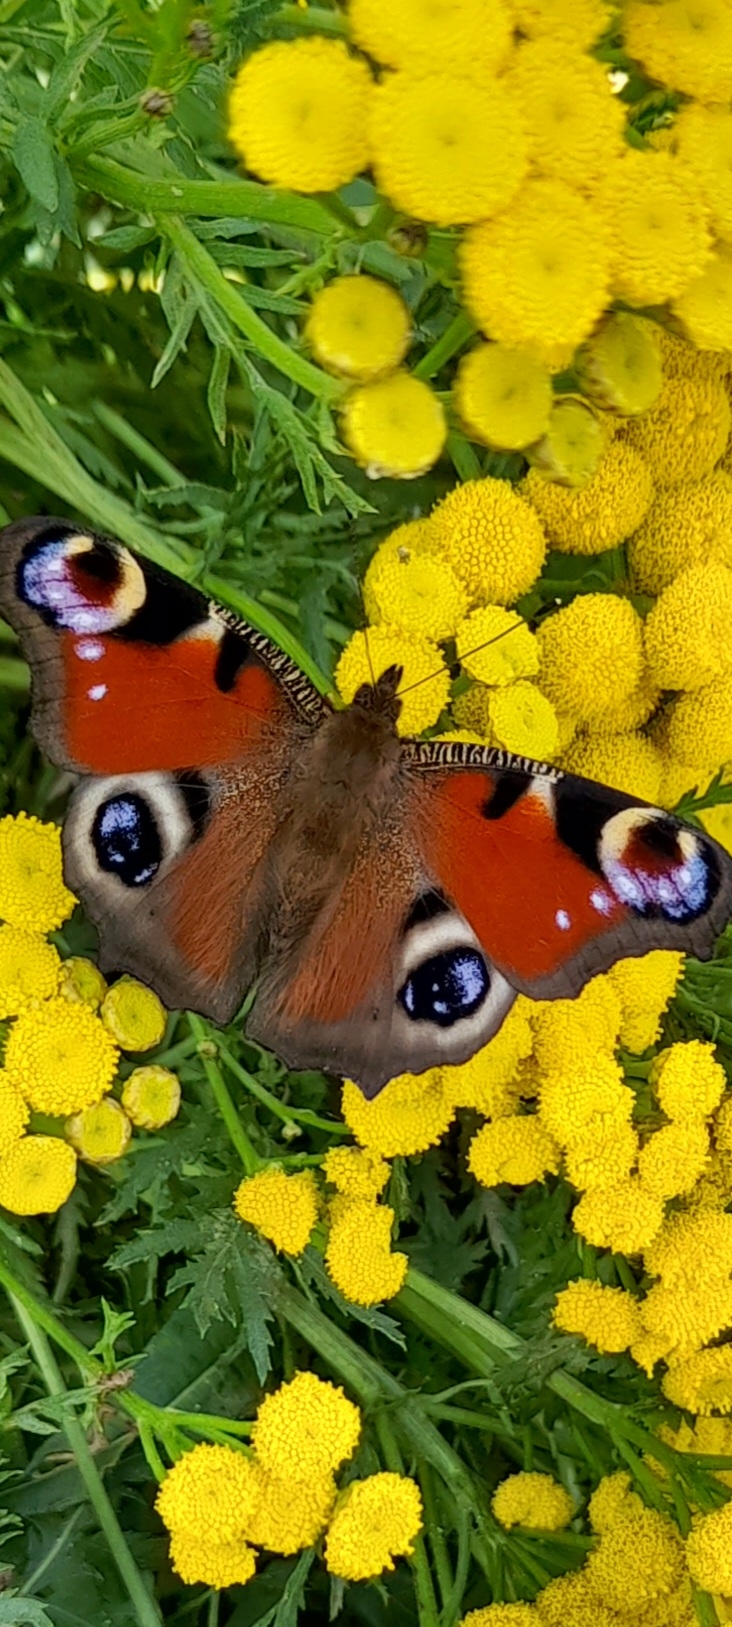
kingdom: Animalia
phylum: Arthropoda
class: Insecta
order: Lepidoptera
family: Nymphalidae
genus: Aglais
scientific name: Aglais io
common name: Dagpåfugleøje
